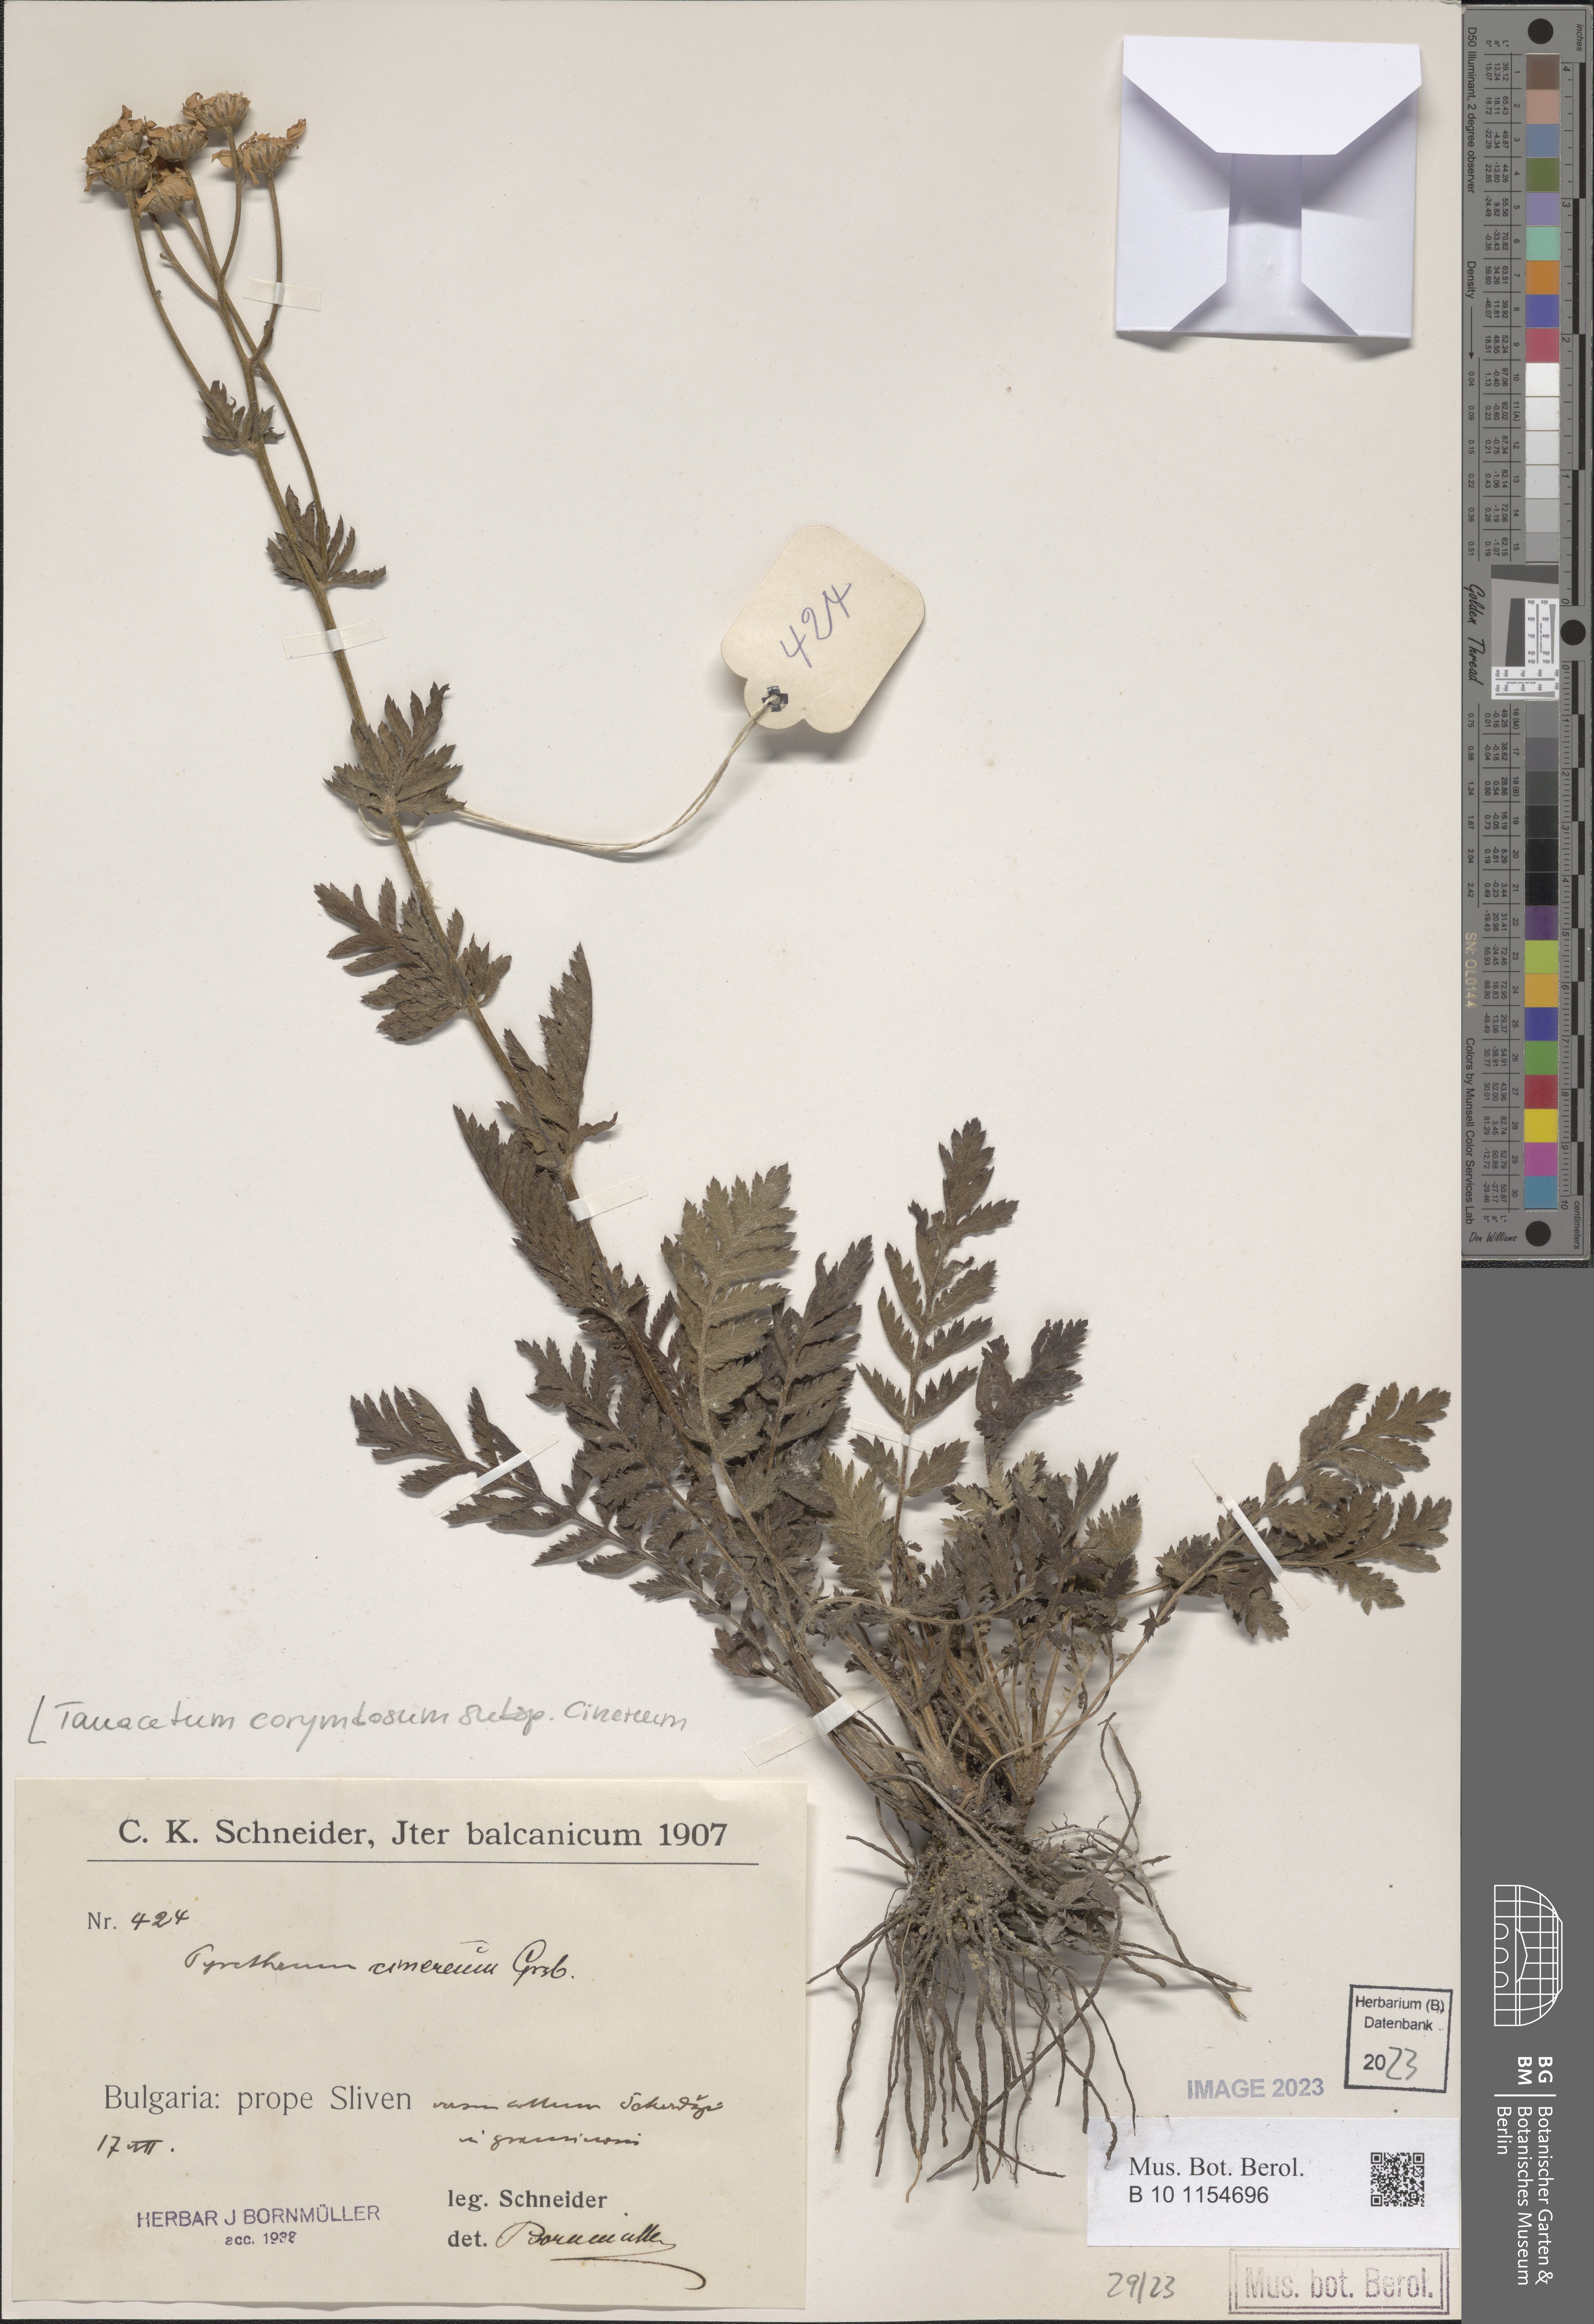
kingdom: Plantae
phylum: Tracheophyta
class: Magnoliopsida
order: Asterales
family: Asteraceae
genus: Tanacetum
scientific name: Tanacetum corymbosum
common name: Scentless feverfew
